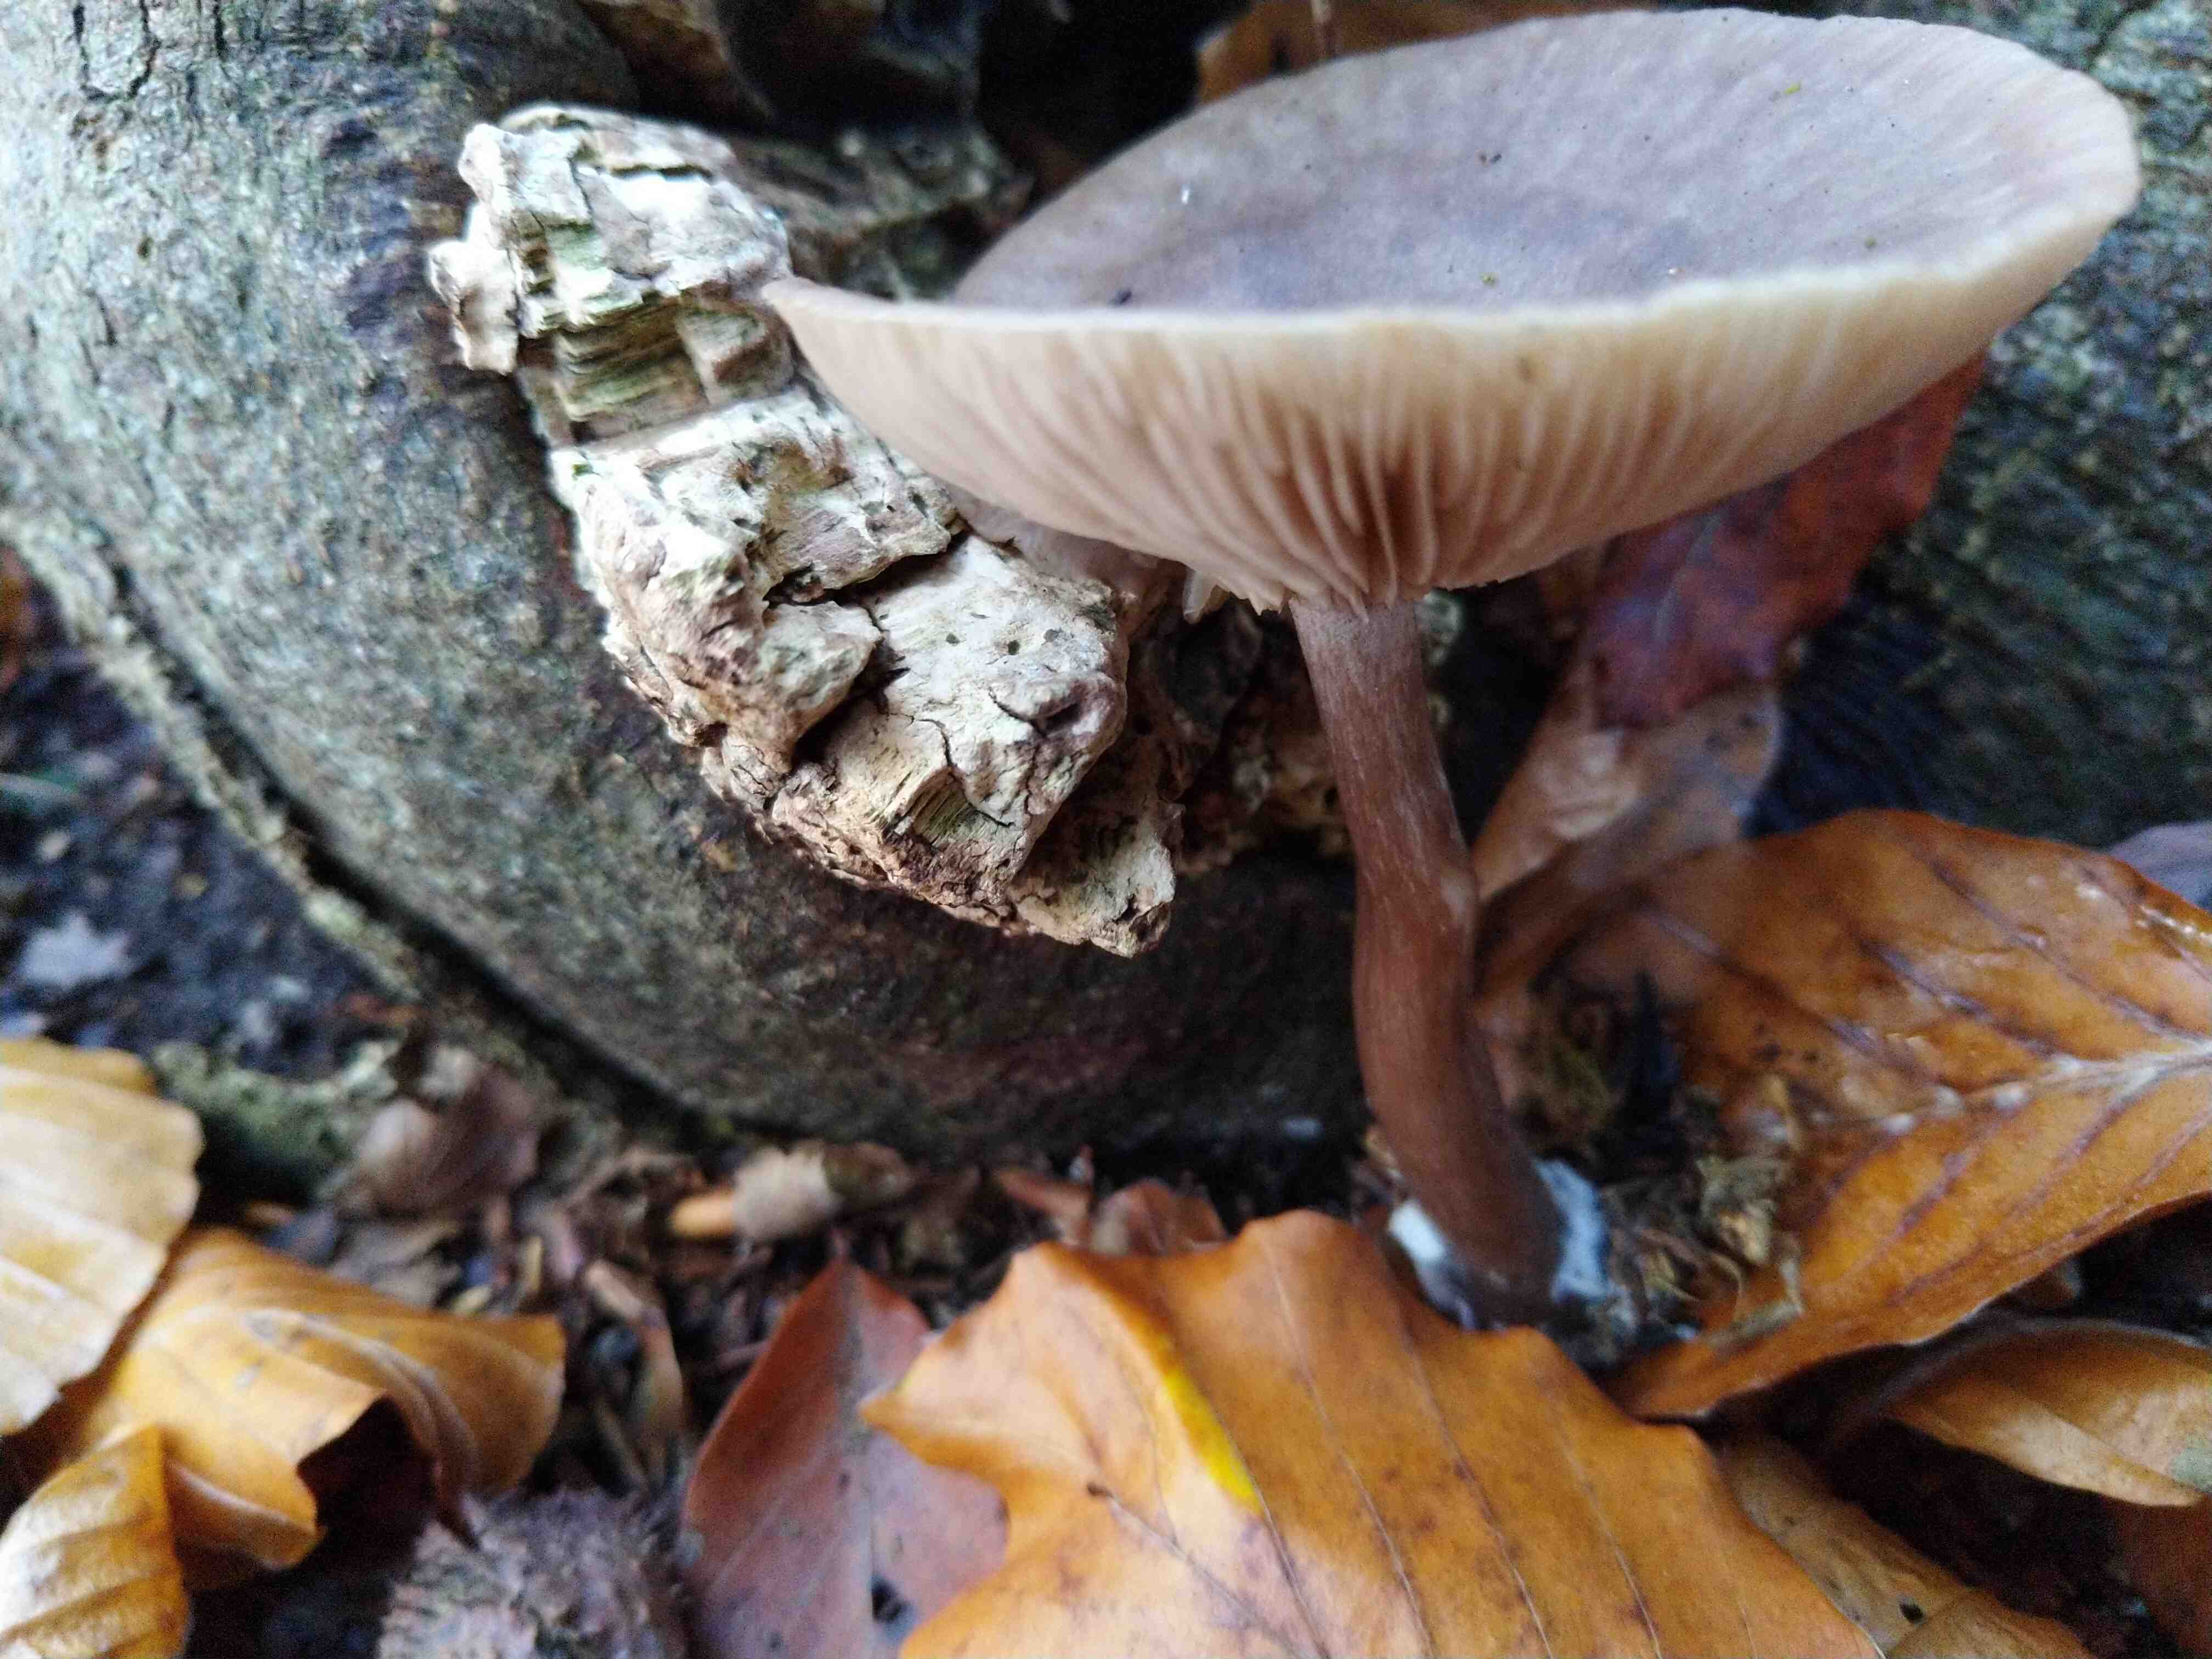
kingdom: Fungi
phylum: Basidiomycota
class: Agaricomycetes
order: Agaricales
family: Pseudoclitocybaceae
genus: Pseudoclitocybe
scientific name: Pseudoclitocybe cyathiformis
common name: almindelig bægertragthat
